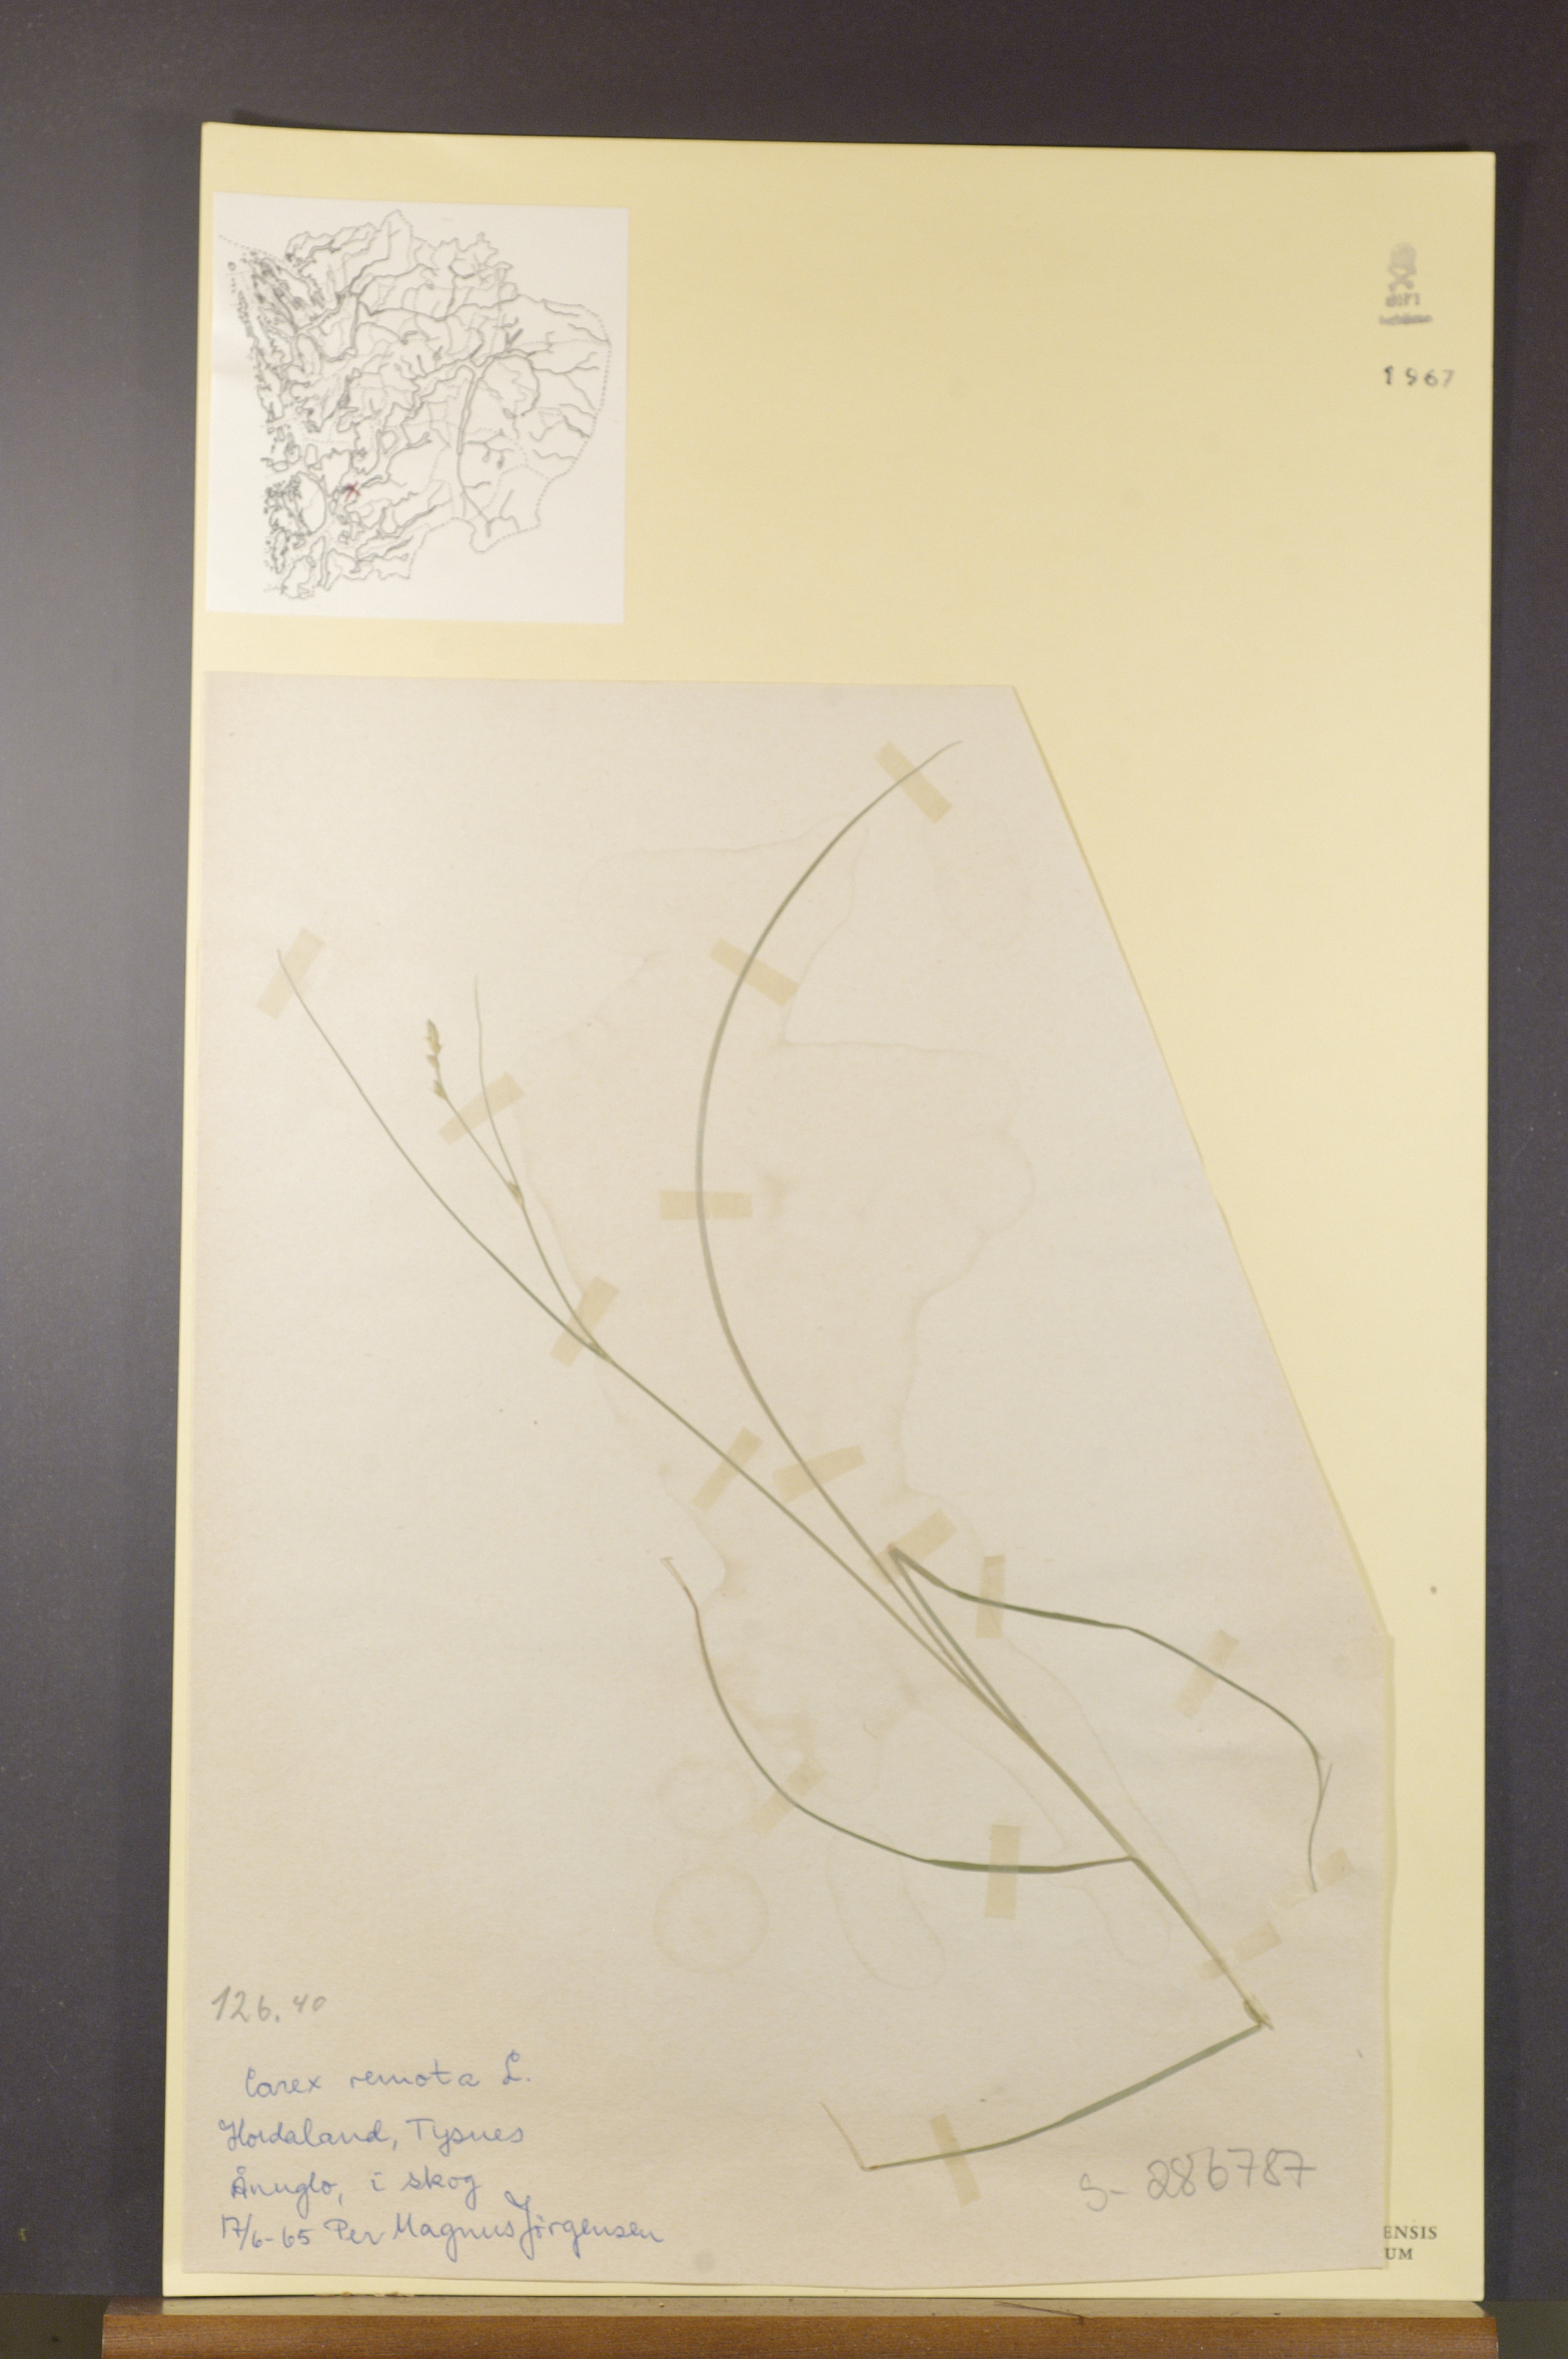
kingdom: Plantae
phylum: Tracheophyta
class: Liliopsida
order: Poales
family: Cyperaceae
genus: Carex
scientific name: Carex remota
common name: Remote sedge
